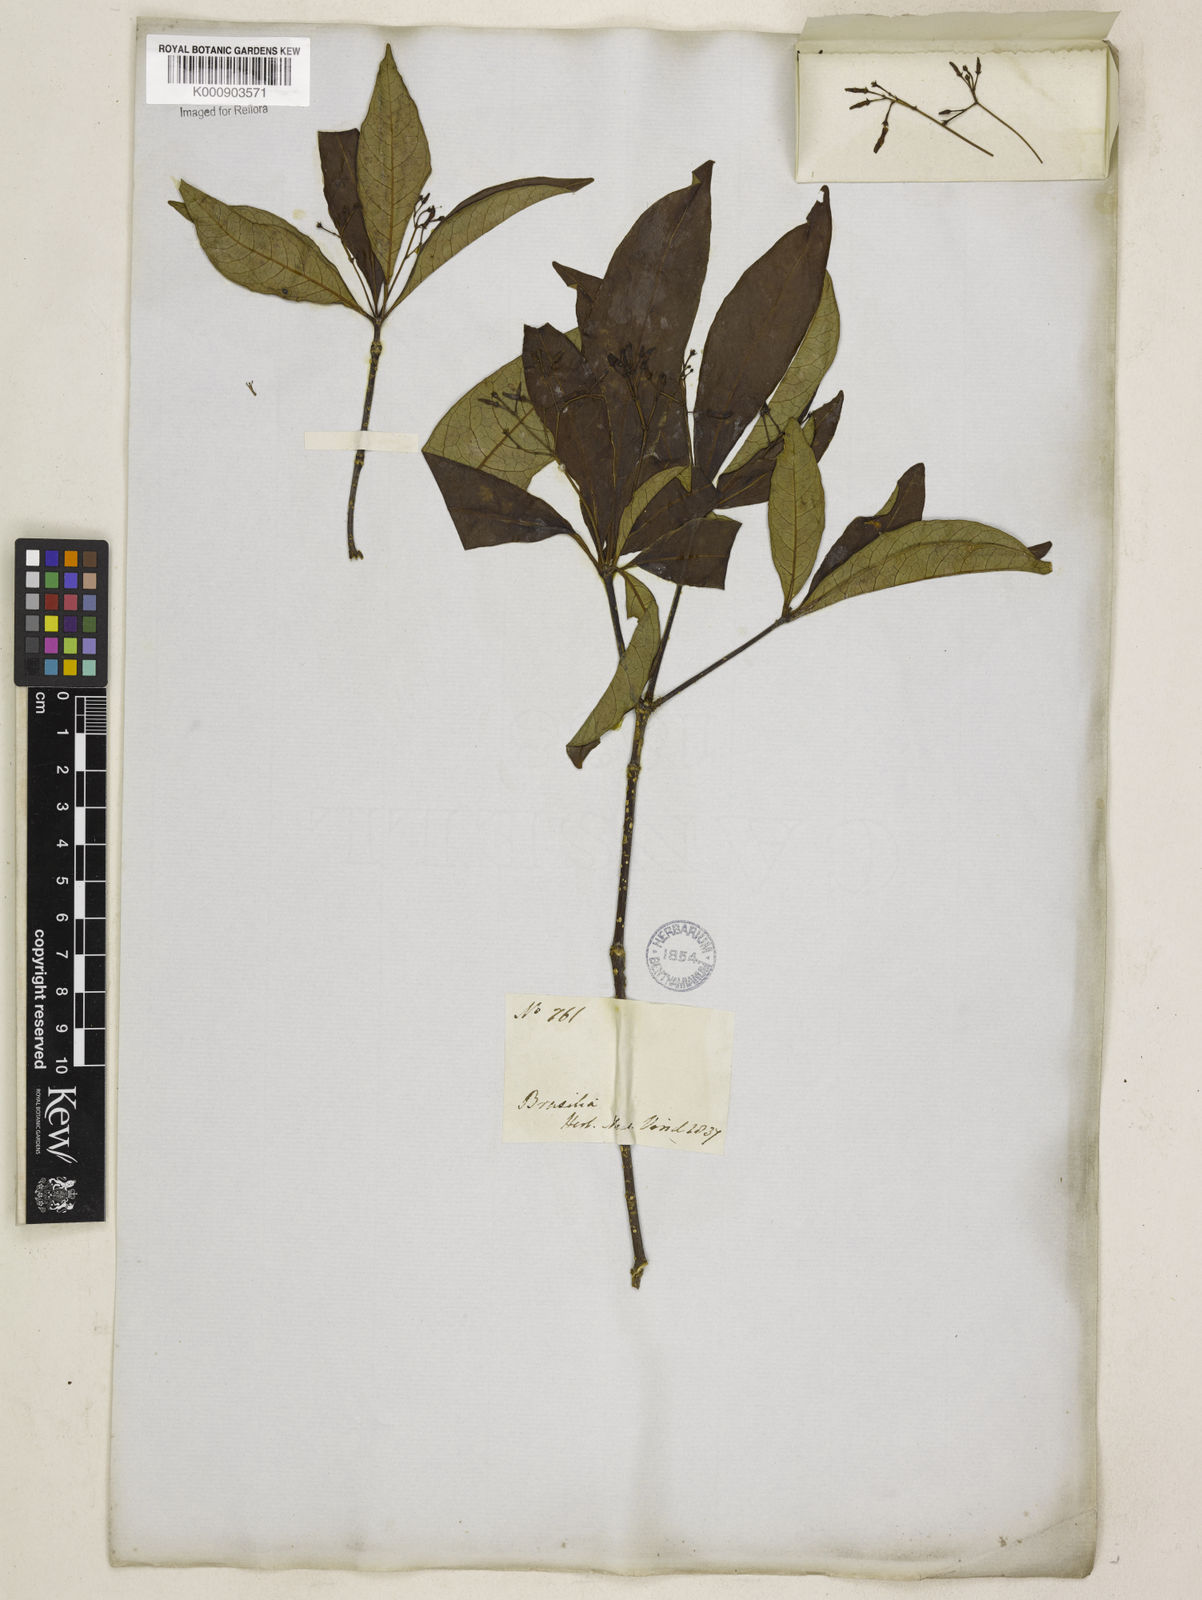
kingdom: Plantae
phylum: Tracheophyta
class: Magnoliopsida
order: Gentianales
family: Apocynaceae
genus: Rauvolfia
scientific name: Rauvolfia polyphylla
